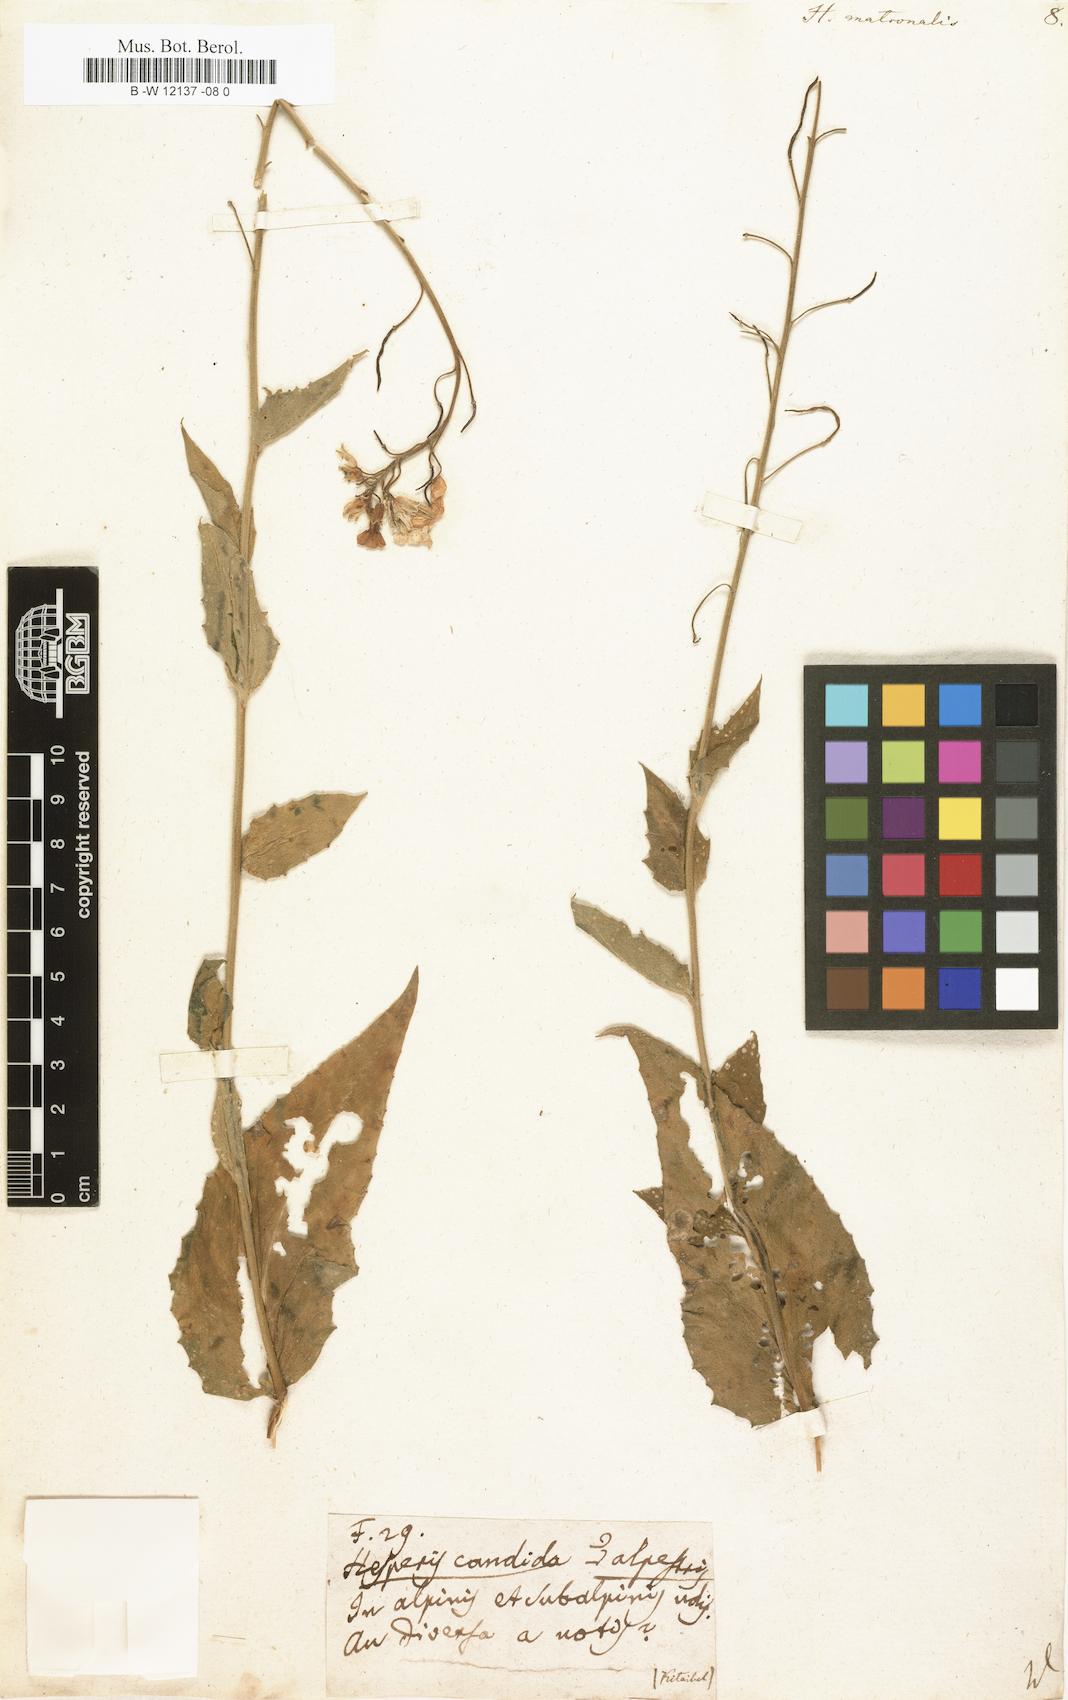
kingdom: Plantae
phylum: Tracheophyta
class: Magnoliopsida
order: Brassicales
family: Brassicaceae
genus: Hesperis
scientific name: Hesperis matronalis
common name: Dame's-violet
